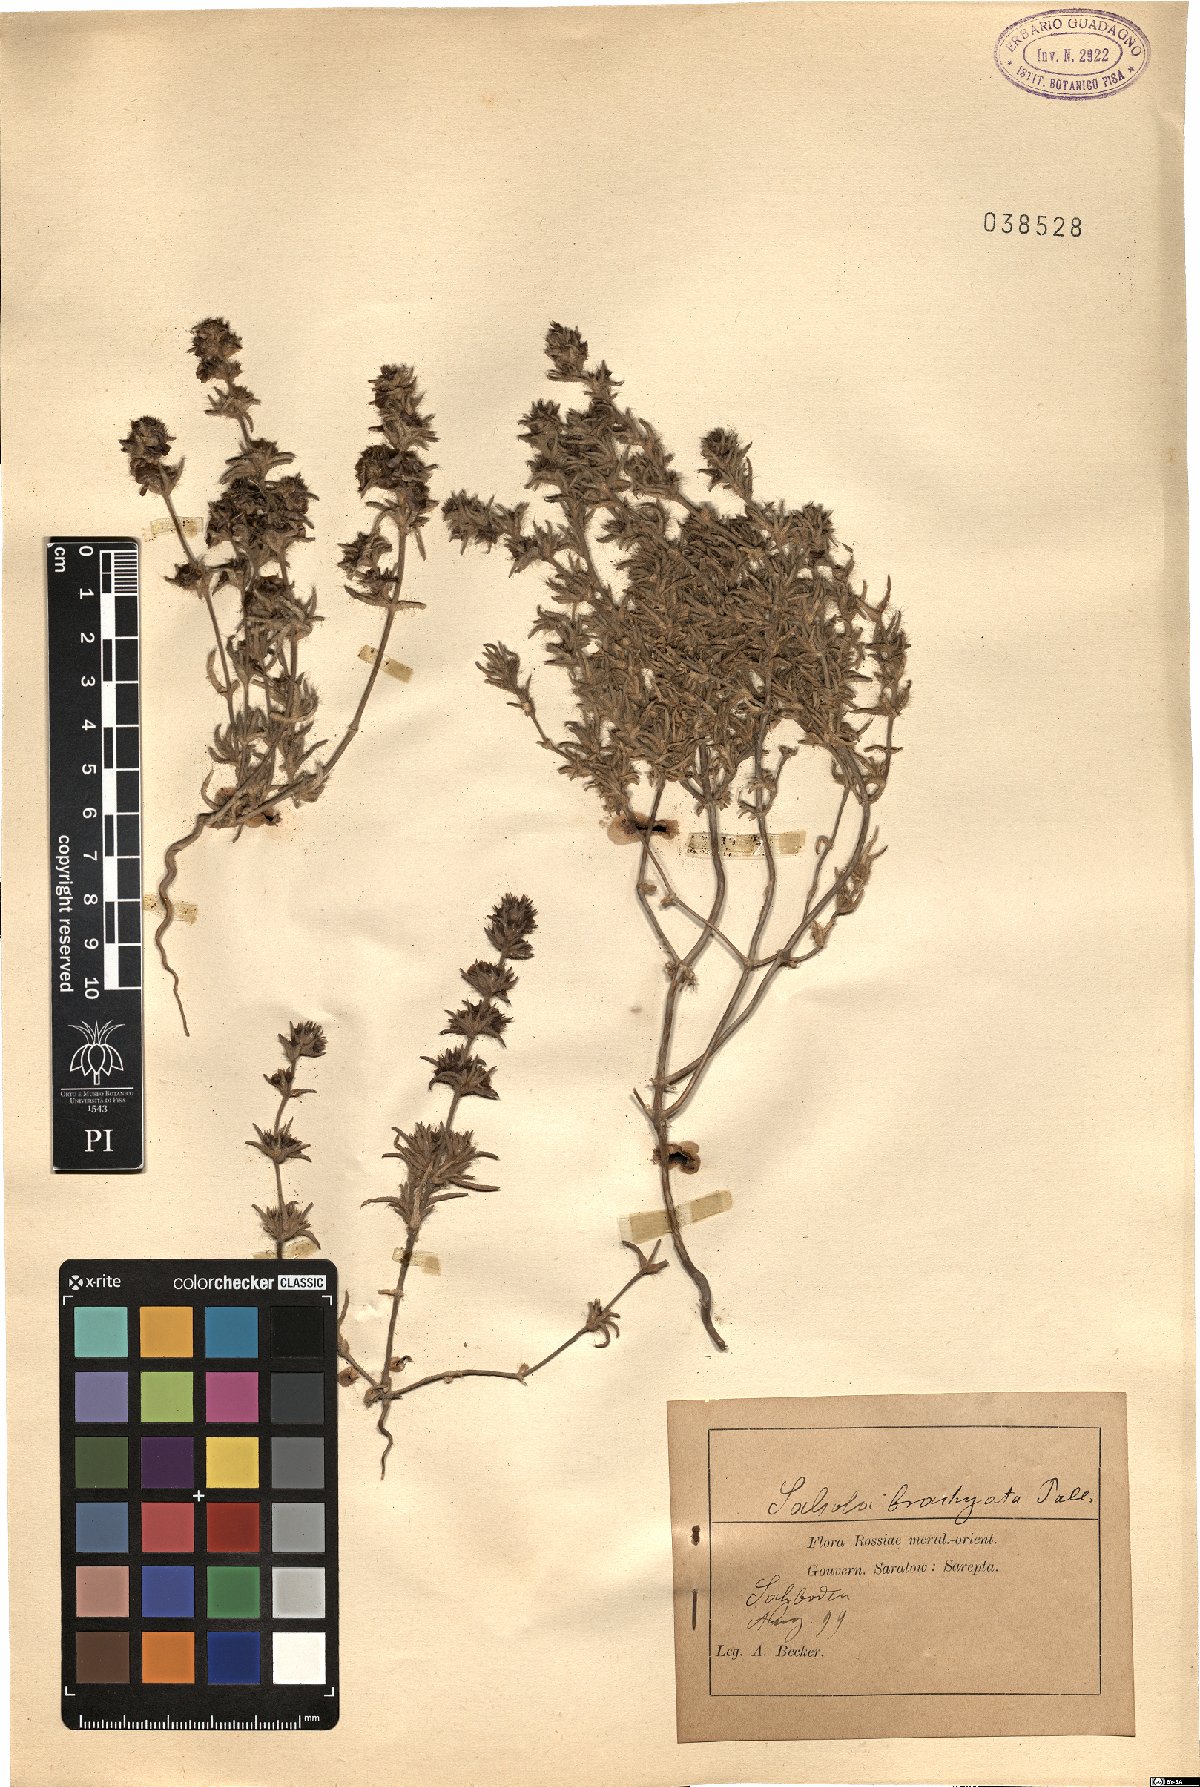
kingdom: Plantae
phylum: Tracheophyta
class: Magnoliopsida
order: Caryophyllales
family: Amaranthaceae
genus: Pyankovia
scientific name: Pyankovia brachiata
